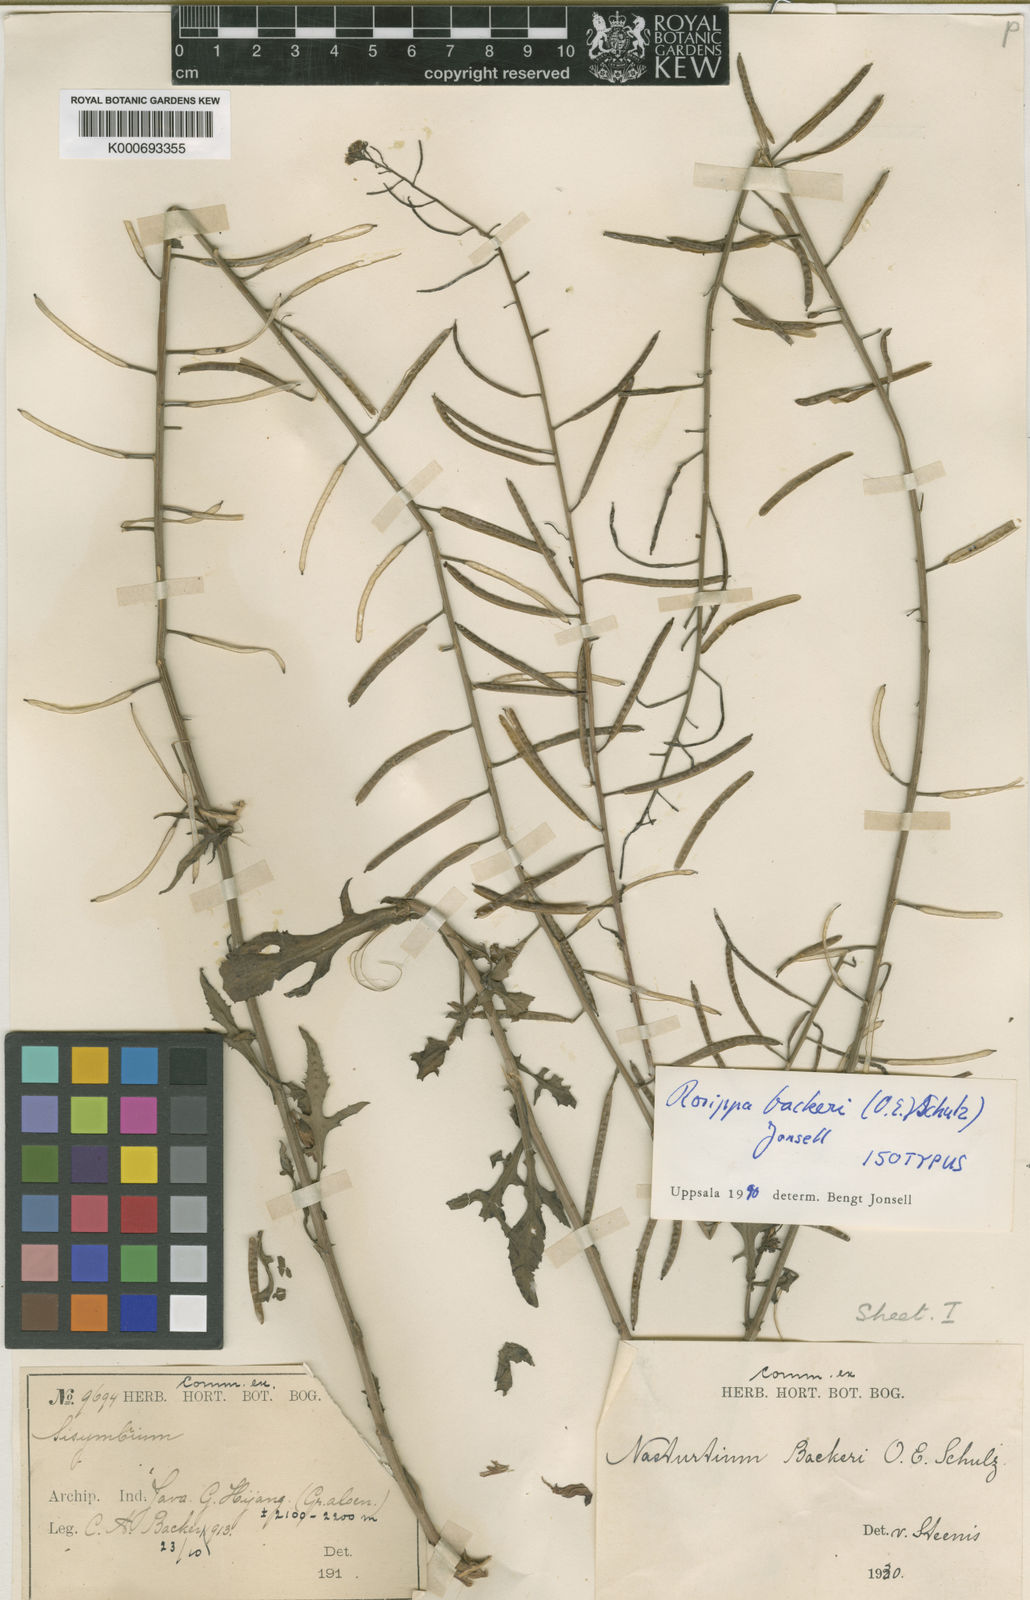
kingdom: Plantae
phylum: Tracheophyta
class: Magnoliopsida
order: Brassicales
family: Brassicaceae
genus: Rorippa
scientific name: Rorippa backeri
